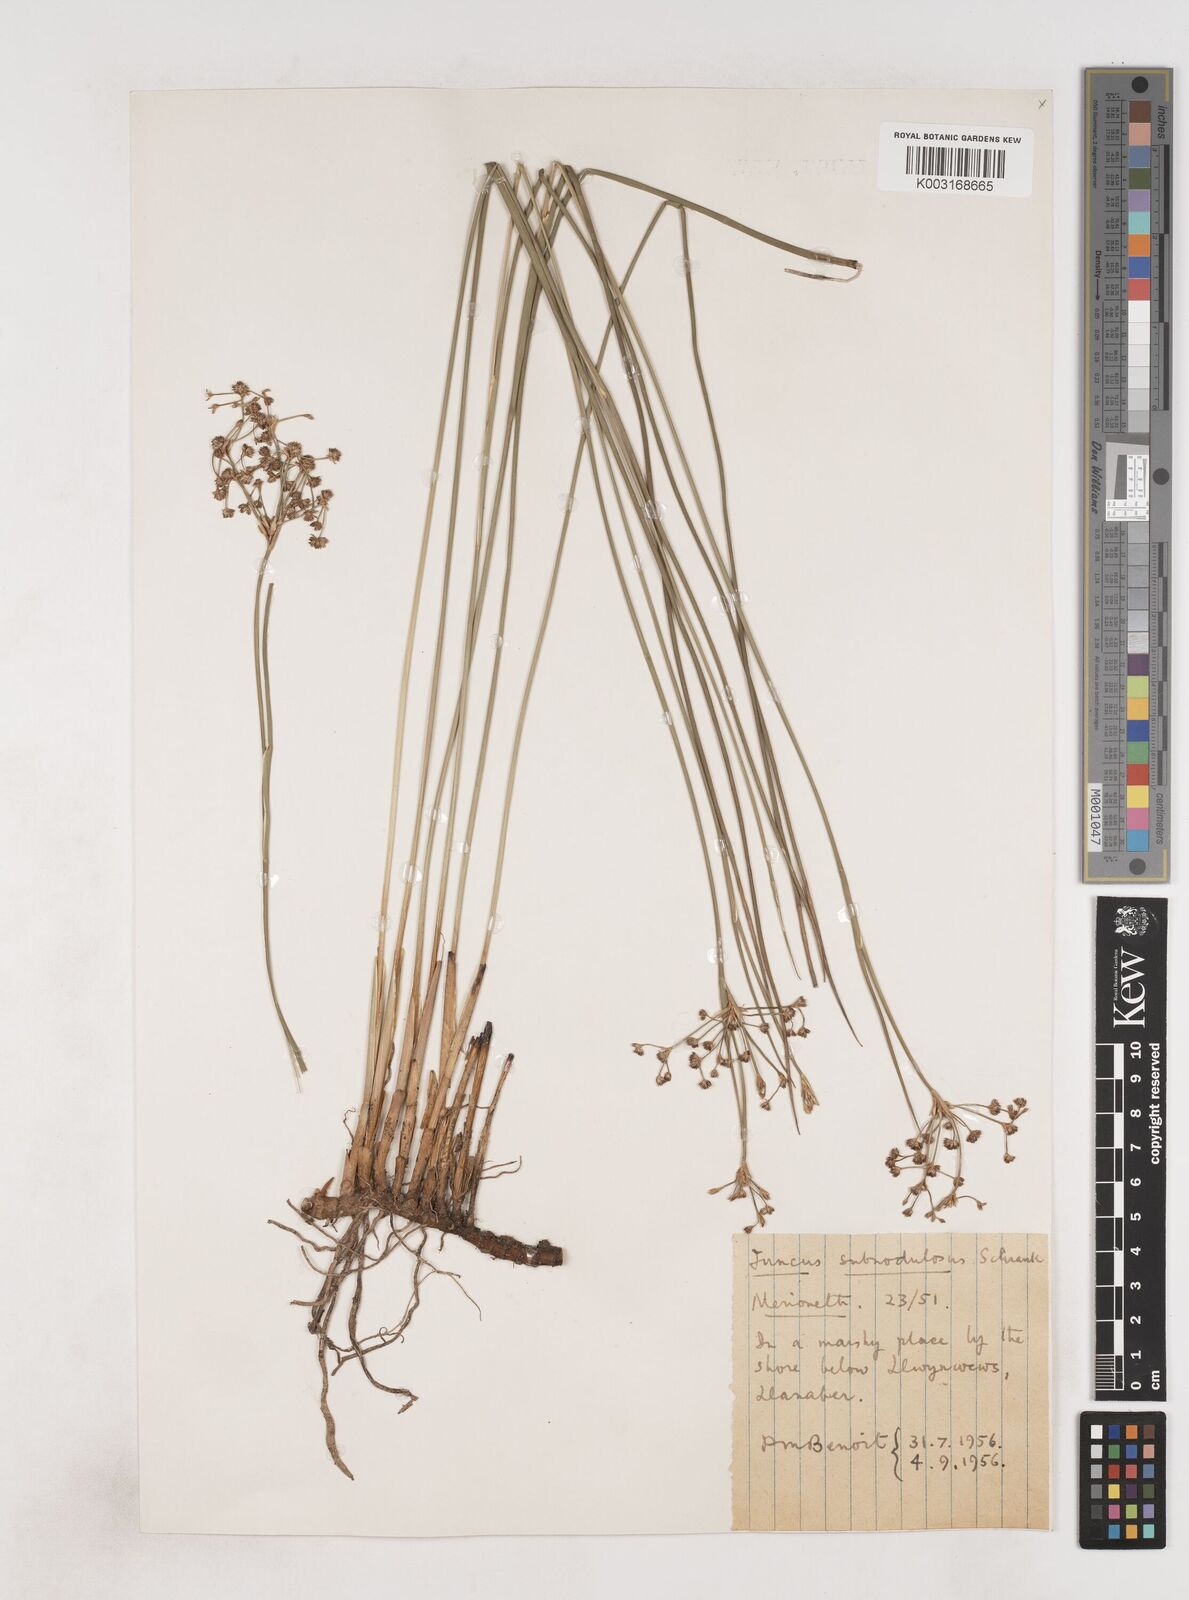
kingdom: Plantae
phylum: Tracheophyta
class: Liliopsida
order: Poales
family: Juncaceae
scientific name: Juncaceae
